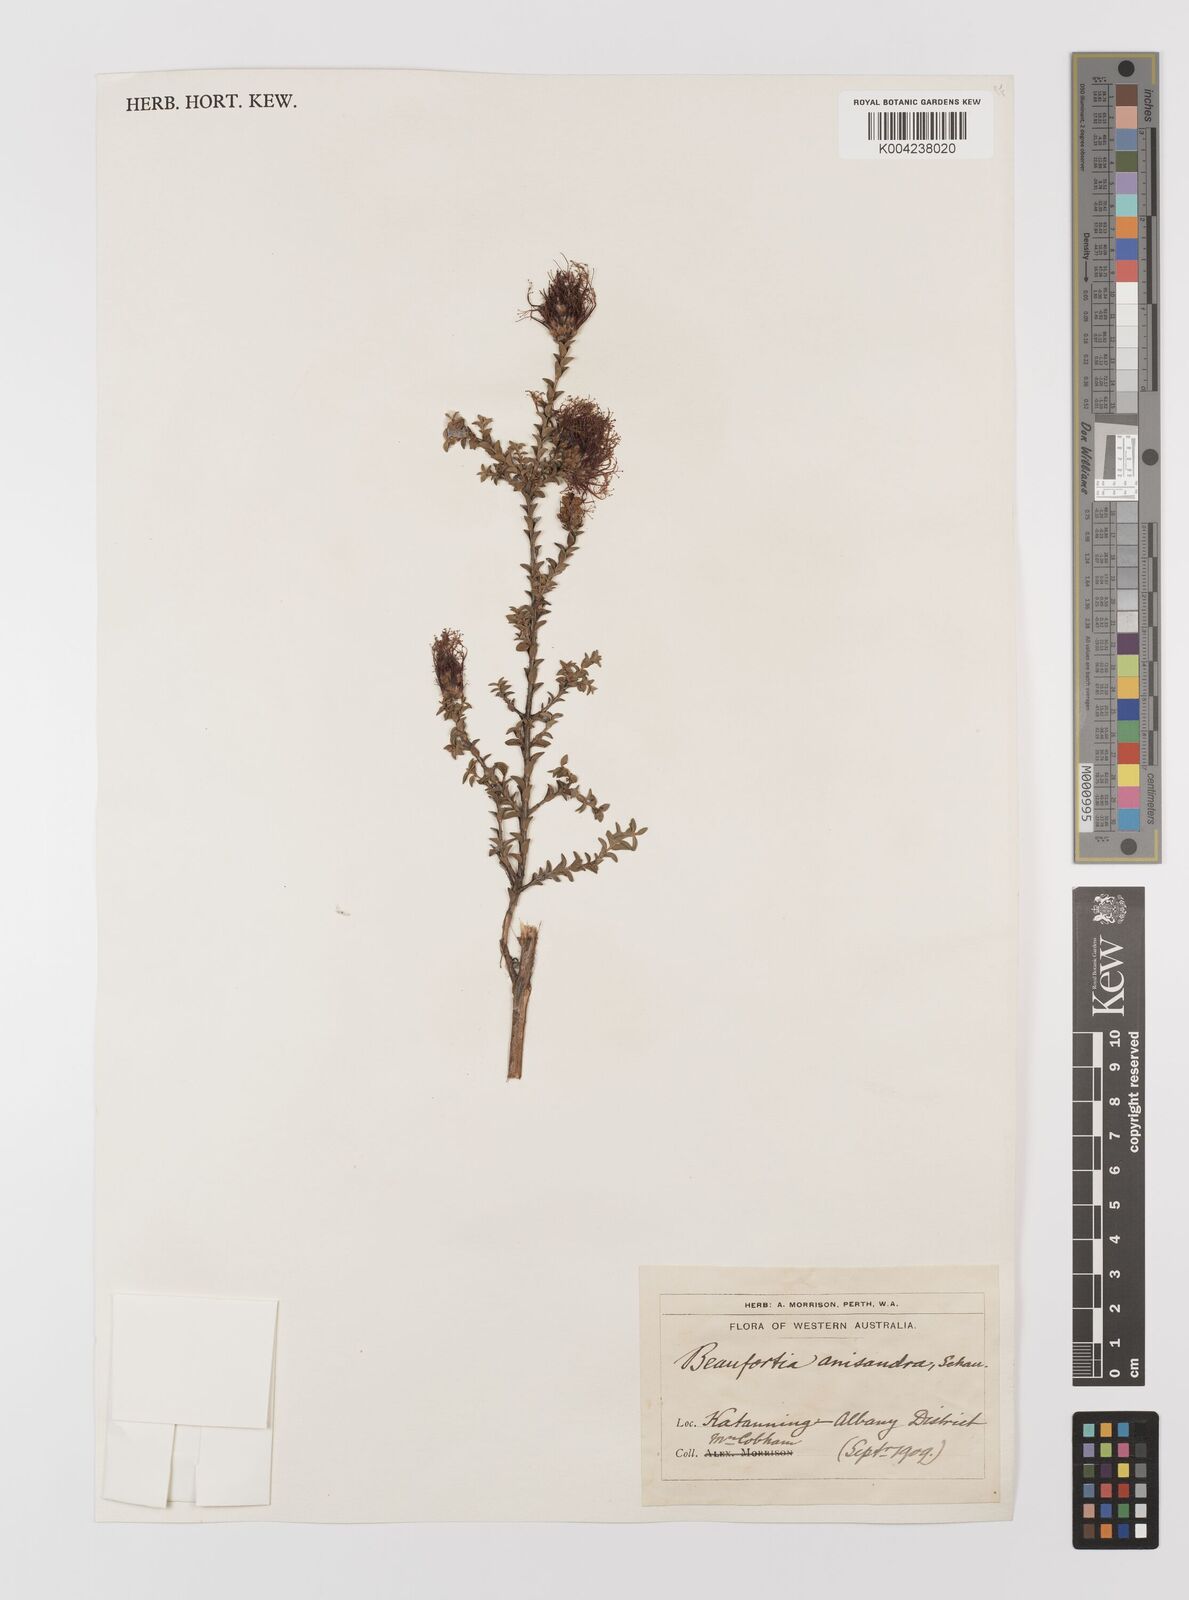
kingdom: Plantae
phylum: Tracheophyta
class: Magnoliopsida
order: Myrtales
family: Myrtaceae
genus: Melaleuca
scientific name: Melaleuca anisandra
